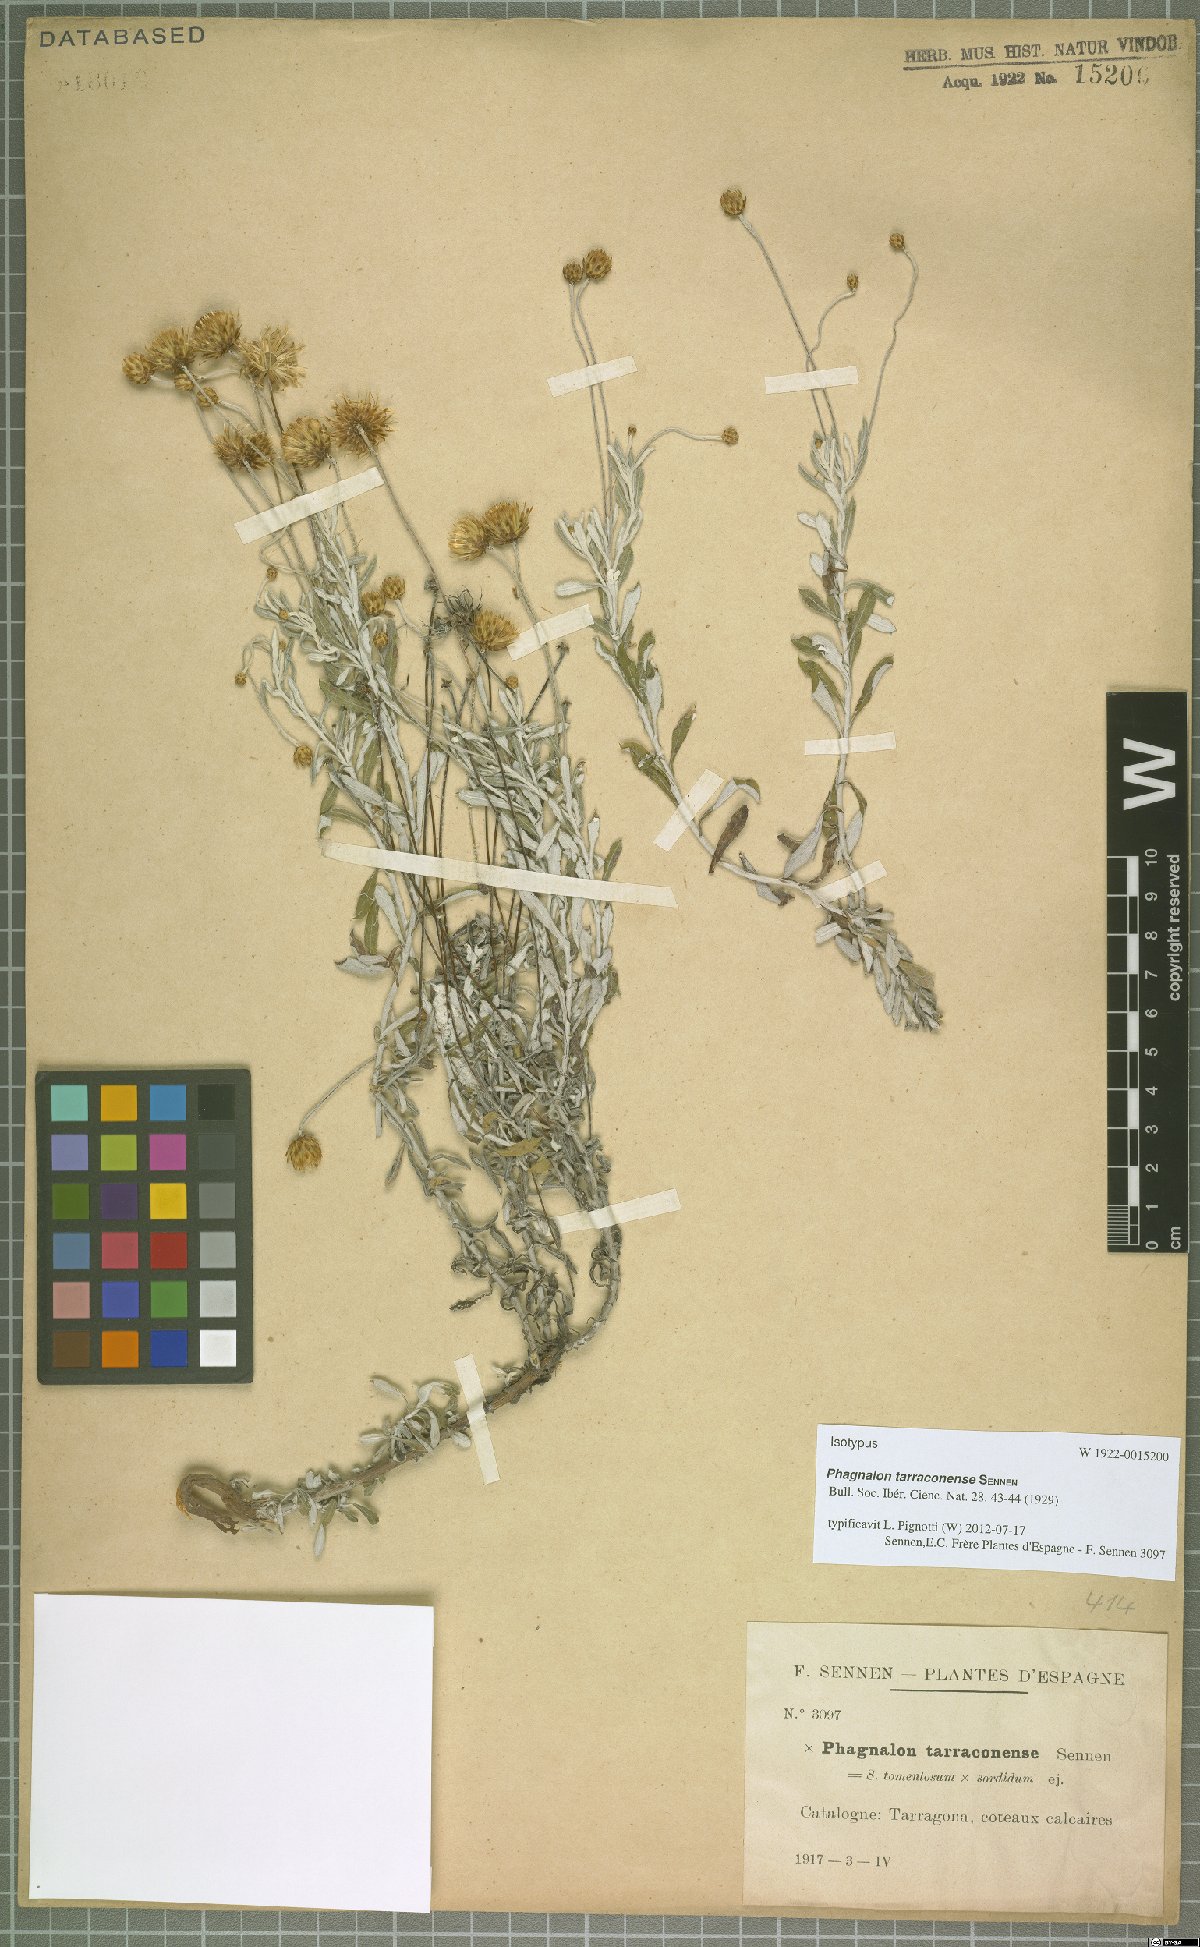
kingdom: Plantae
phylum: Tracheophyta
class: Magnoliopsida
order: Asterales
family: Asteraceae
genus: Phagnalon
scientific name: Phagnalon tarraconense
